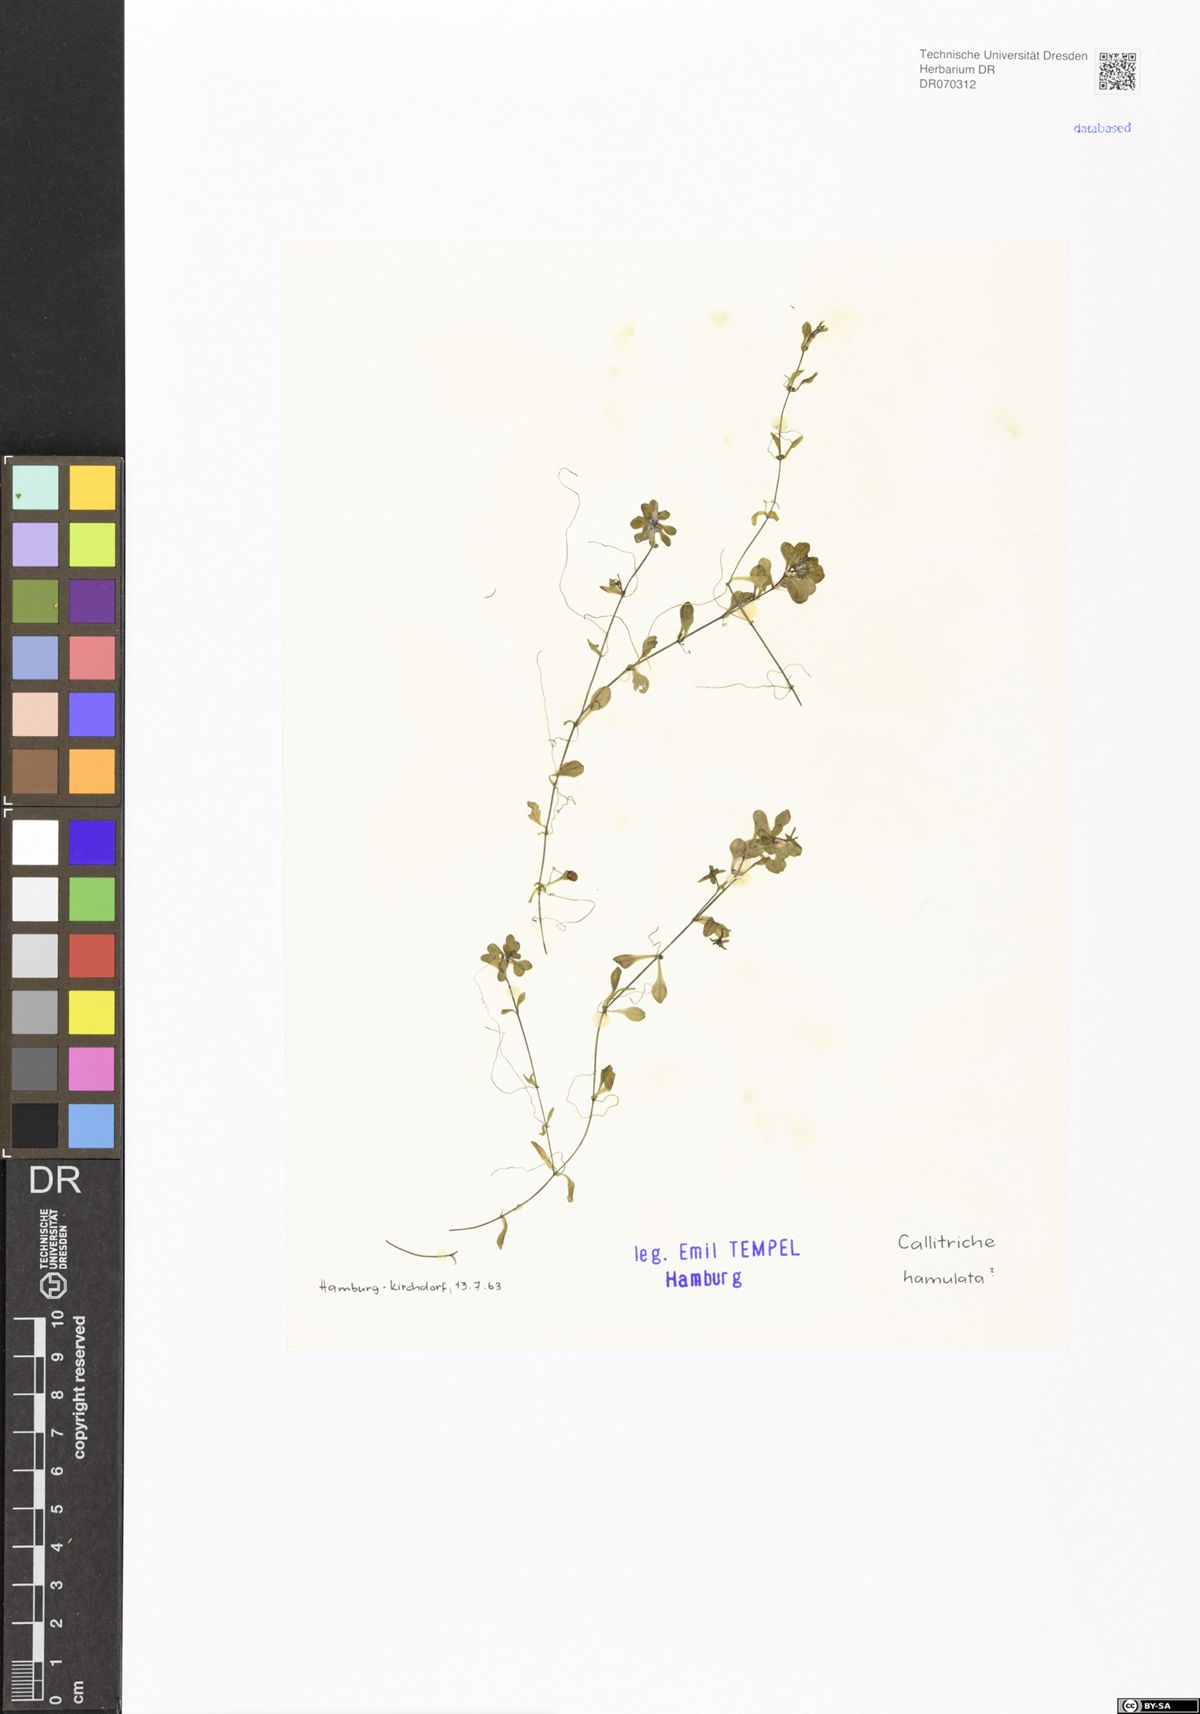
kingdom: Plantae
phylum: Tracheophyta
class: Magnoliopsida
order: Lamiales
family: Plantaginaceae
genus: Callitriche
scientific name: Callitriche hamulata
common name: Intermediate water-starwort
